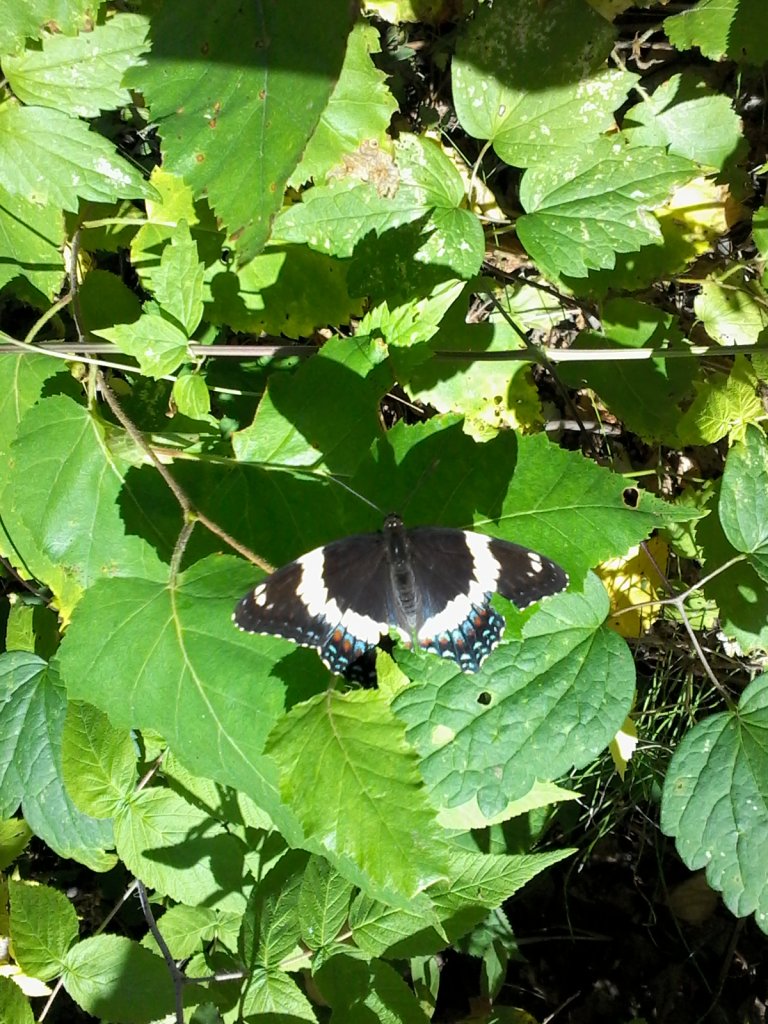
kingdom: Animalia
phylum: Arthropoda
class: Insecta
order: Lepidoptera
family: Nymphalidae
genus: Limenitis
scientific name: Limenitis arthemis
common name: Red-spotted Admiral
